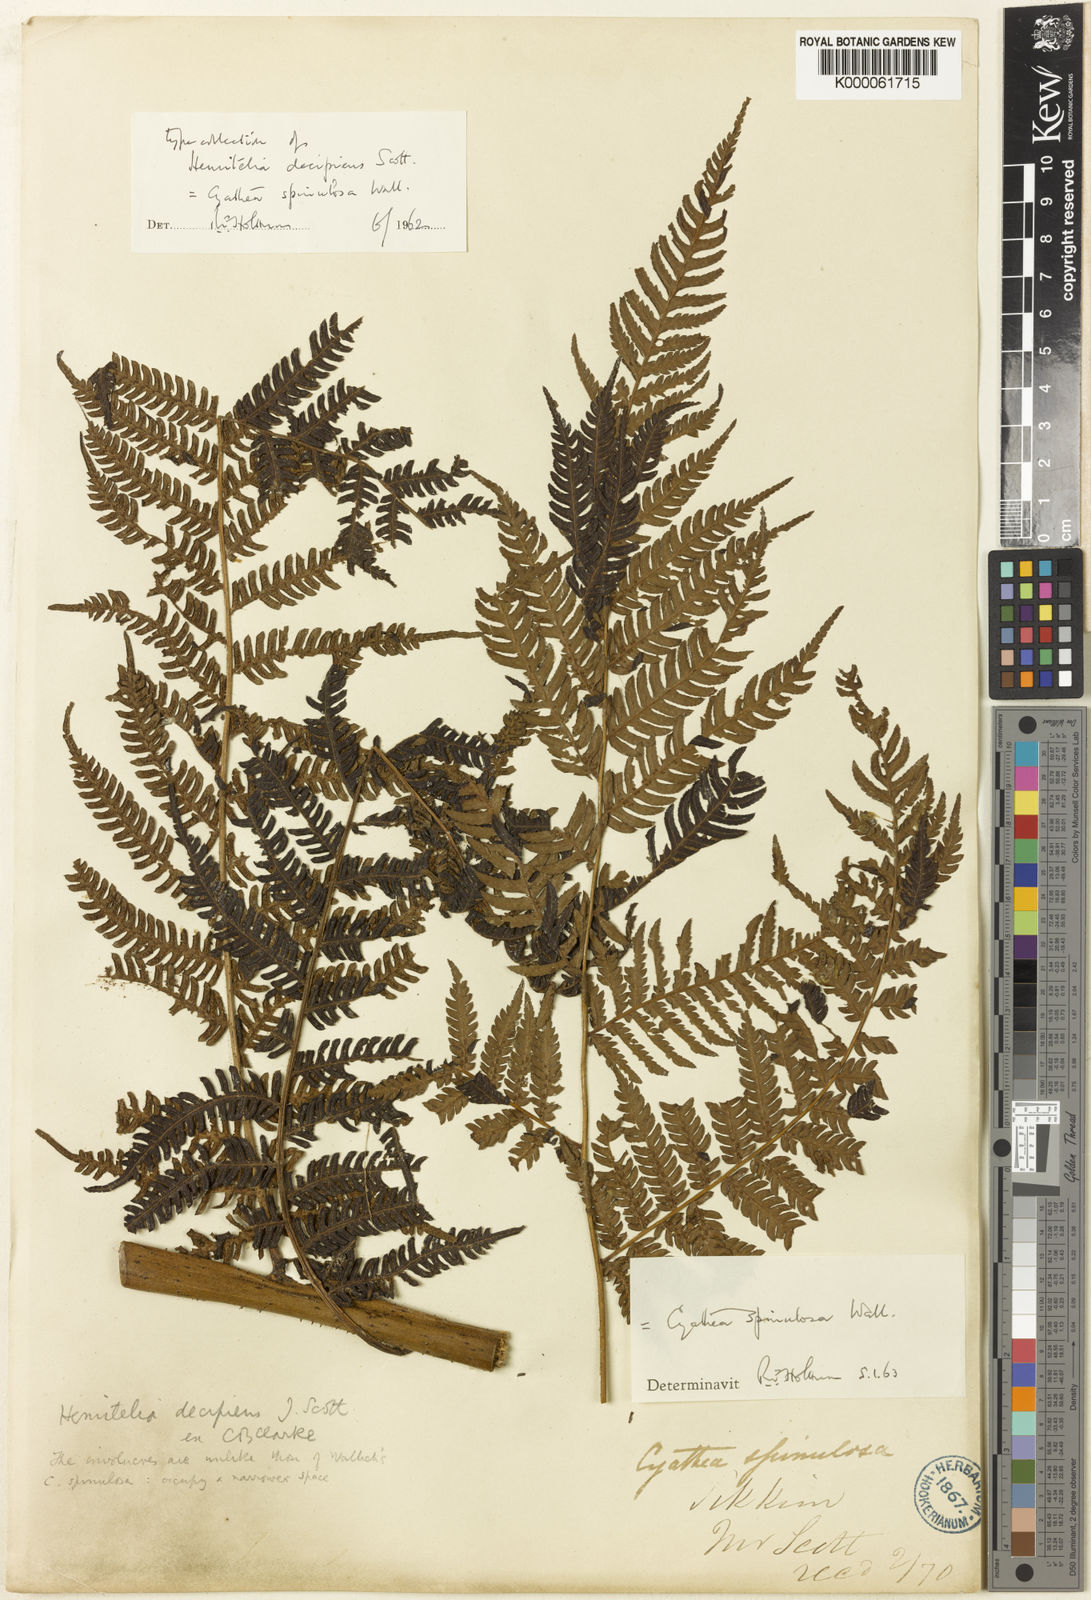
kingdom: Plantae
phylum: Tracheophyta
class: Polypodiopsida
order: Cyatheales
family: Cyatheaceae
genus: Cyathea
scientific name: Cyathea
